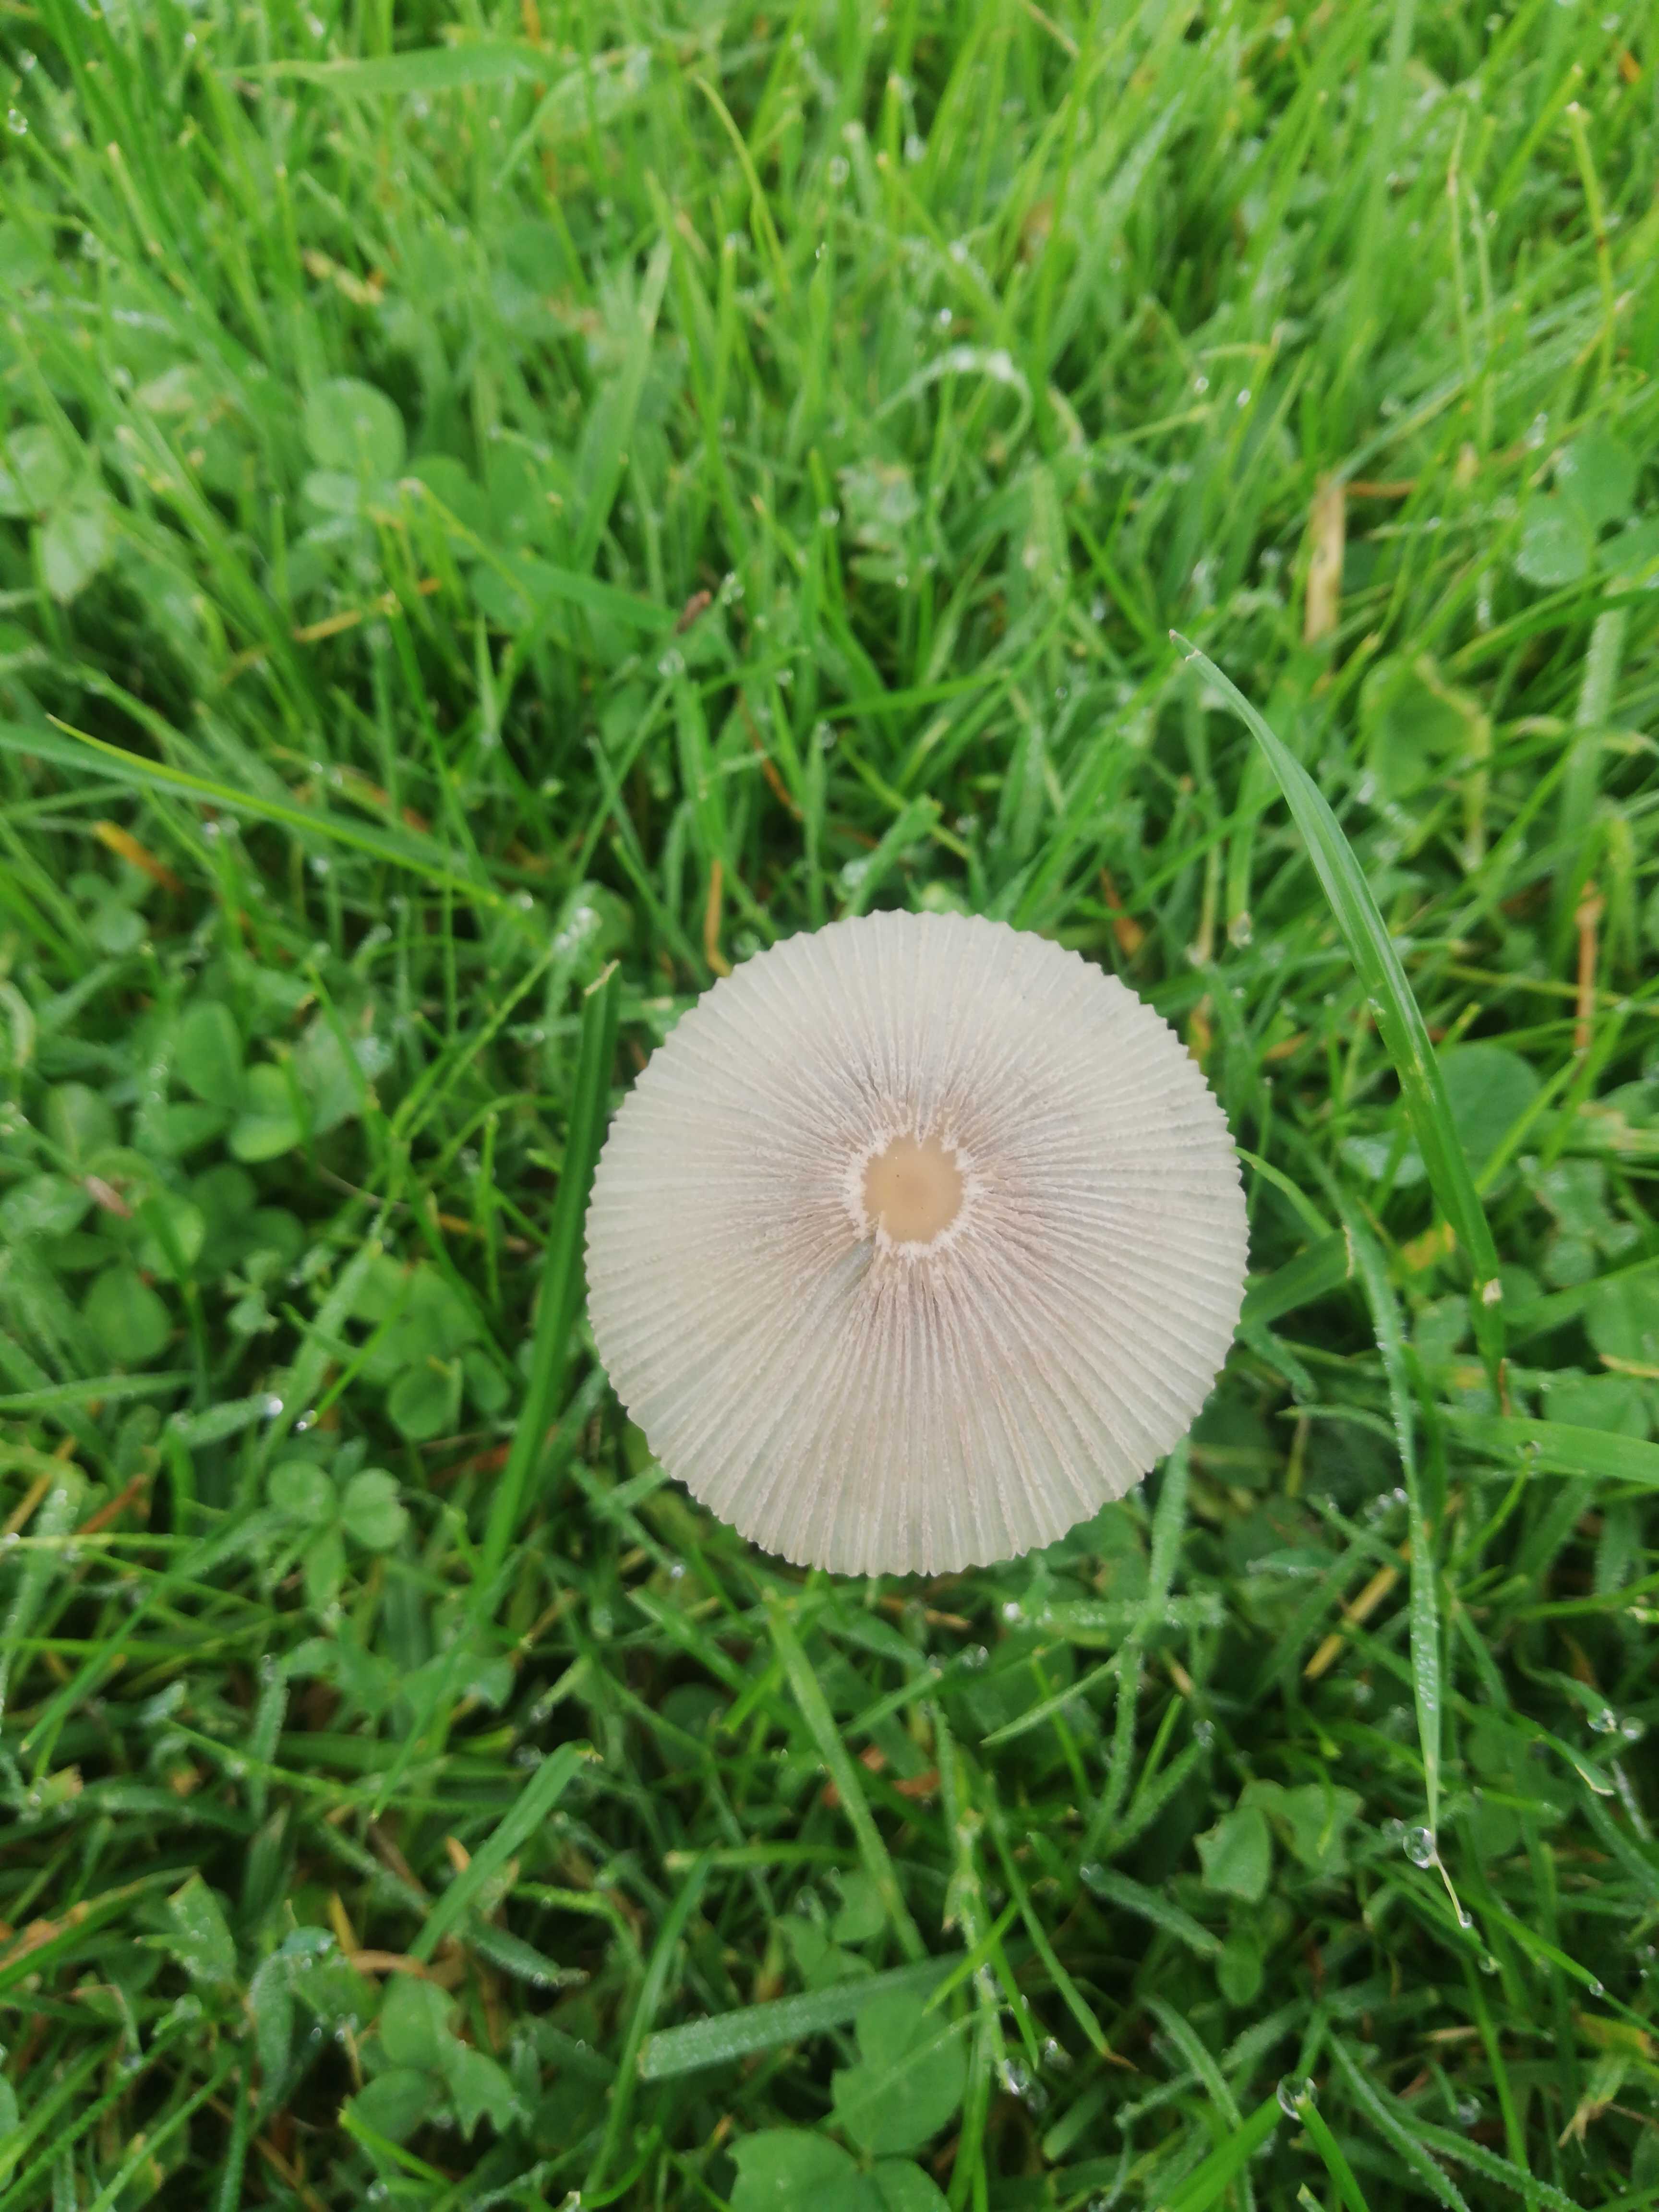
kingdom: Fungi
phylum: Basidiomycota
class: Agaricomycetes
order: Agaricales
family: Psathyrellaceae
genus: Parasola
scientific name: Parasola
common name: hjulhat
